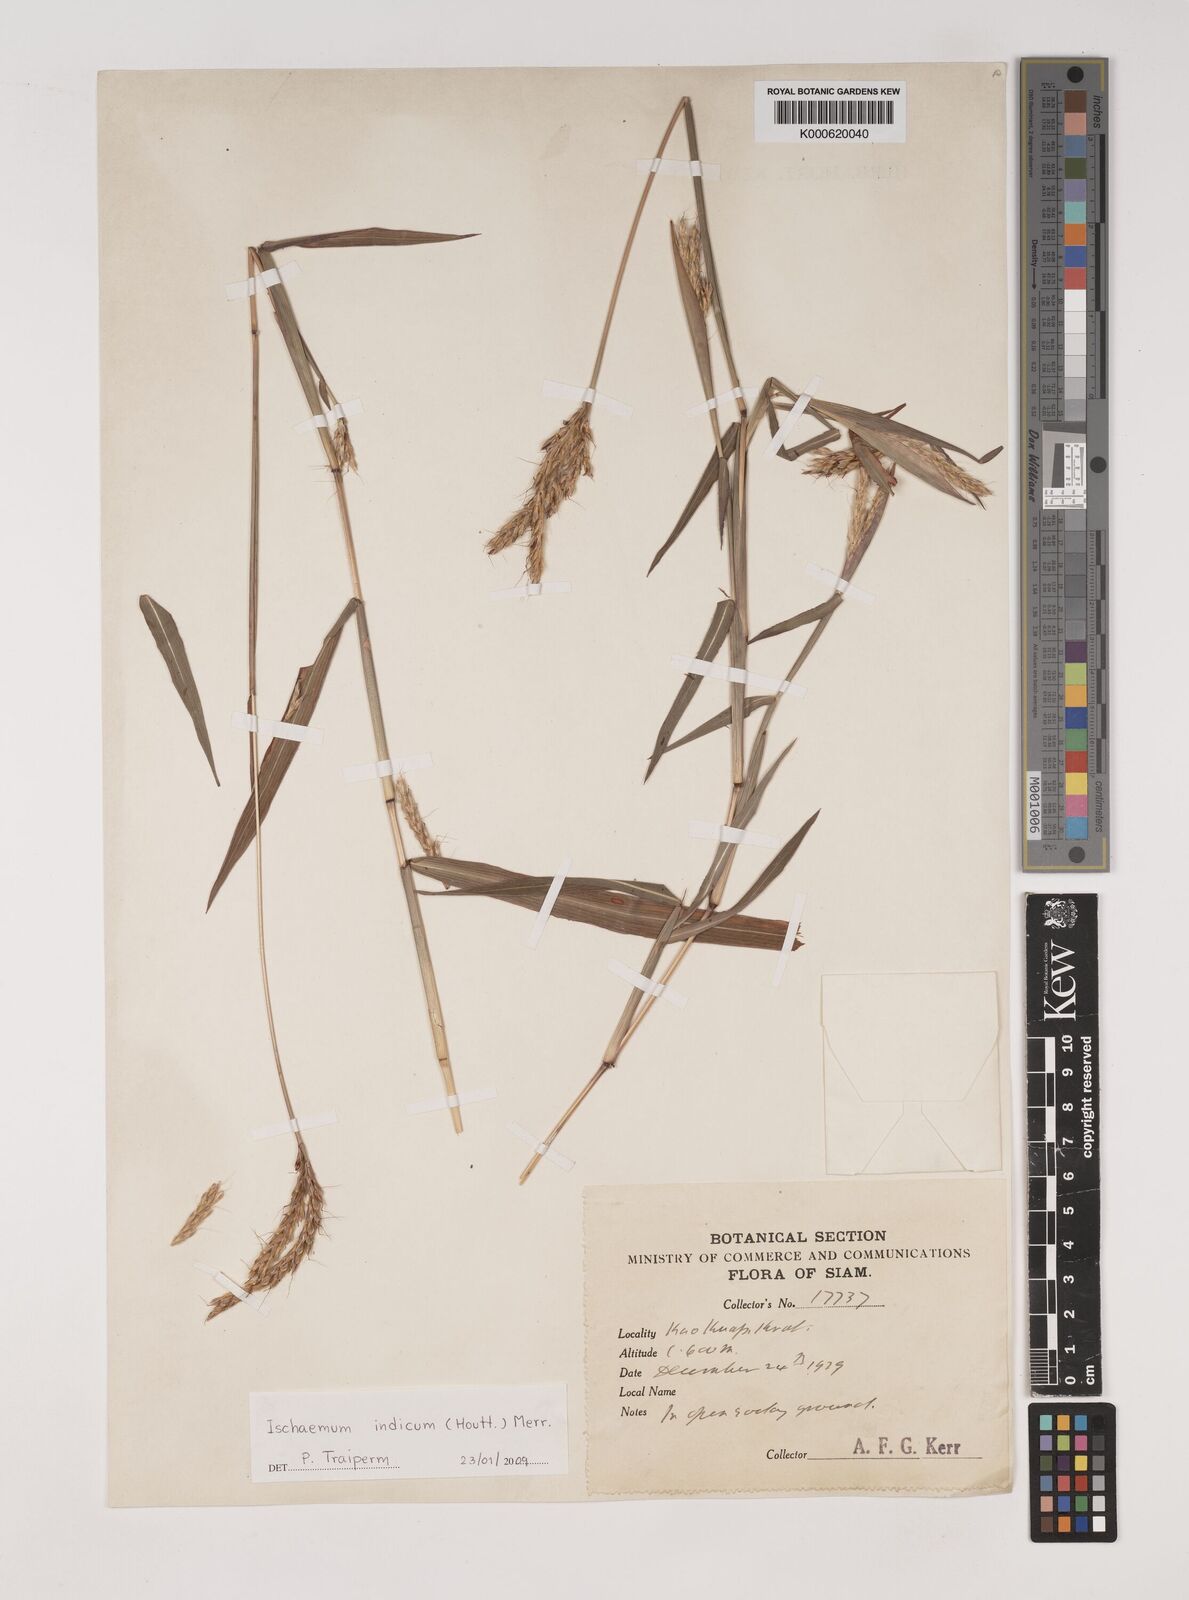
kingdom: Plantae
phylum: Tracheophyta
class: Liliopsida
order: Poales
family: Poaceae
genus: Polytrias
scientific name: Polytrias indica
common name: Indian murainagrass
